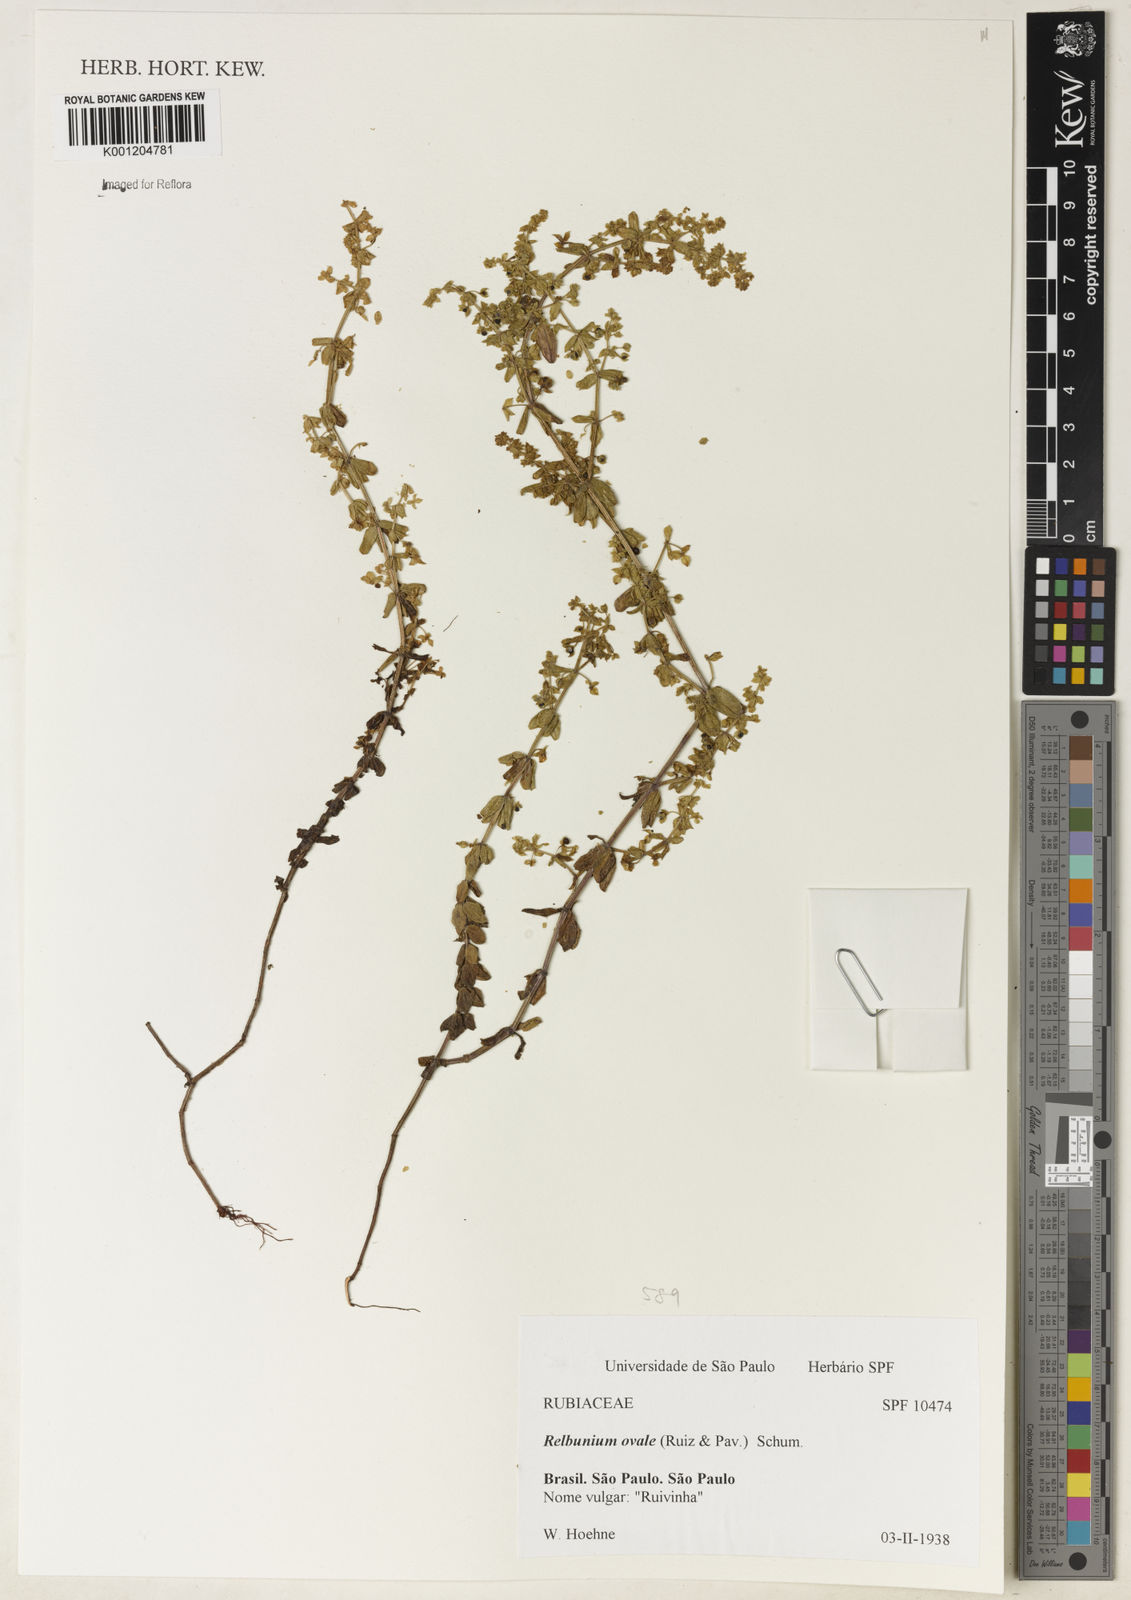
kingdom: Plantae
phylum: Tracheophyta
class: Magnoliopsida
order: Gentianales
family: Rubiaceae
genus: Galium
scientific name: Galium hypocarpium
